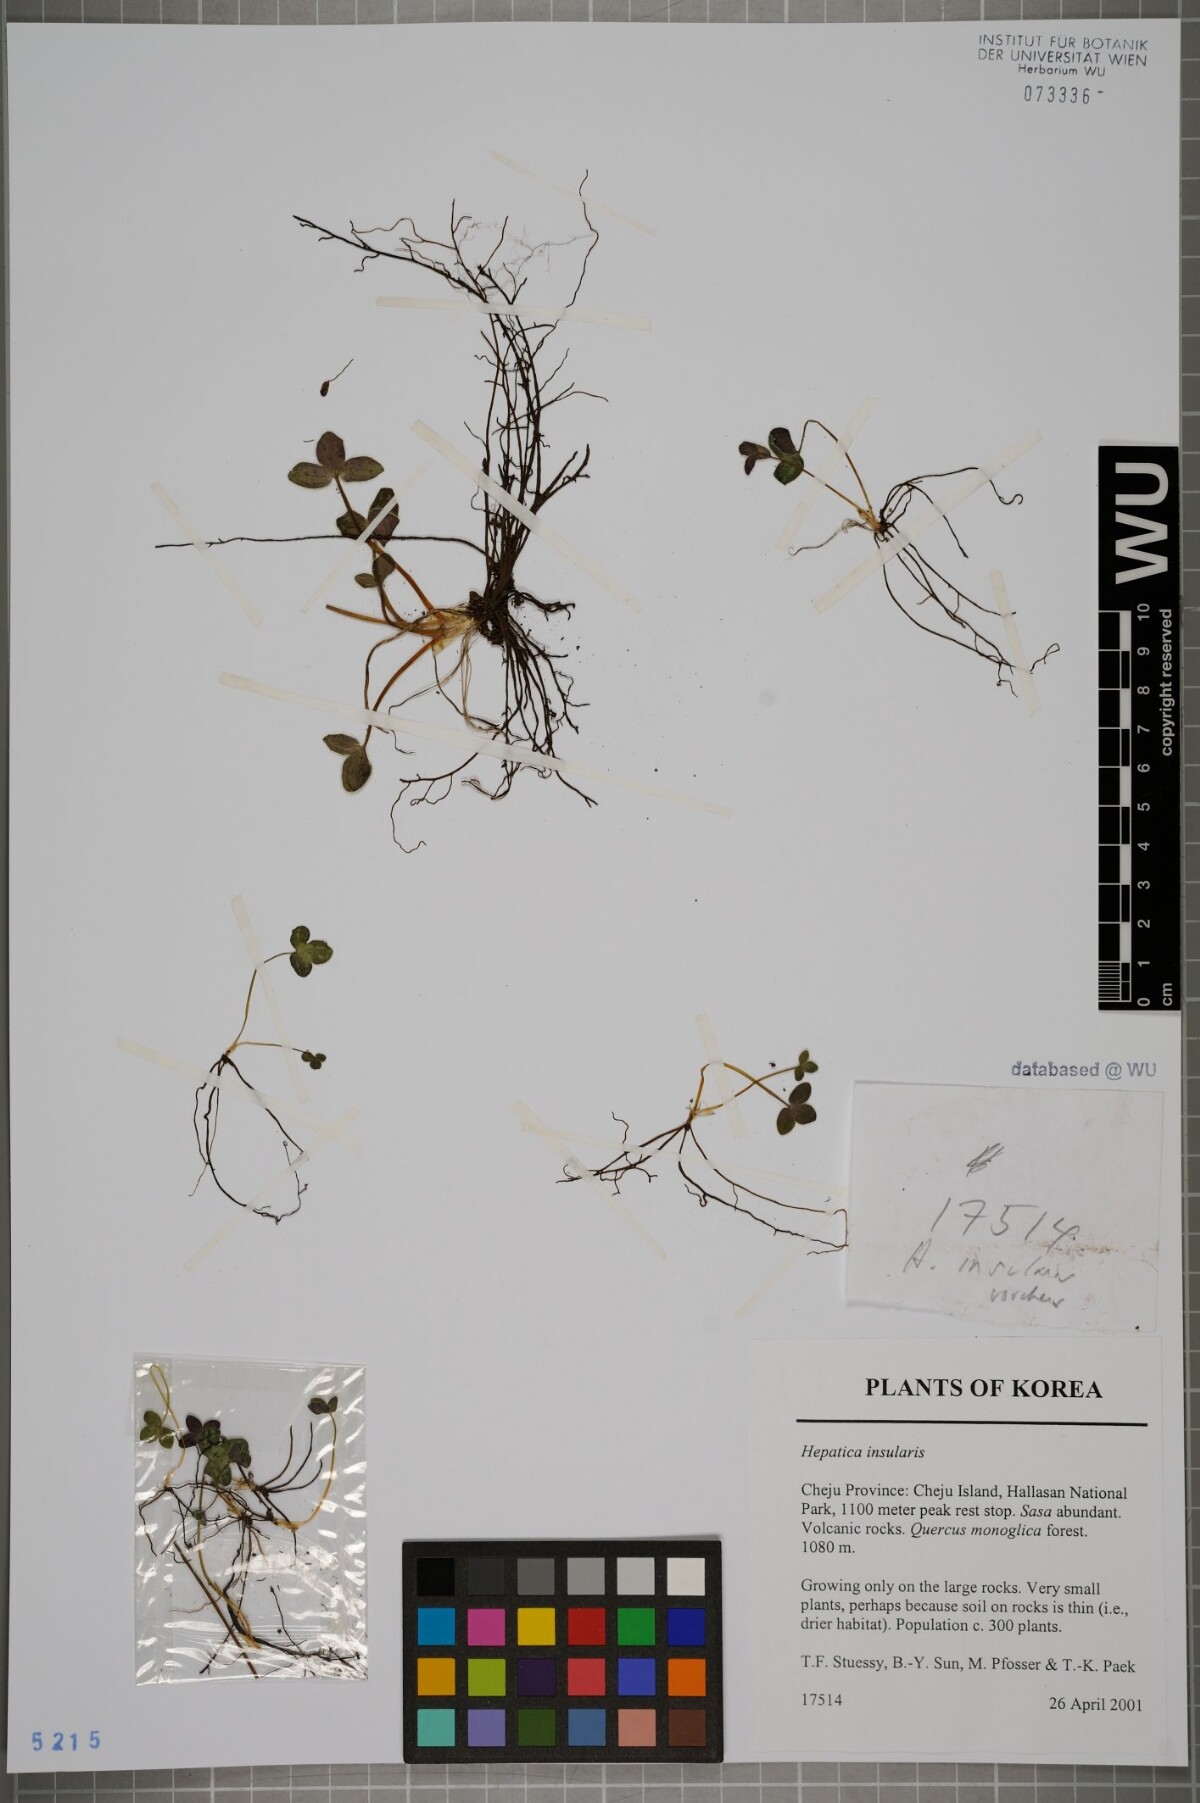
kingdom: Plantae
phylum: Tracheophyta
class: Magnoliopsida
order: Ranunculales
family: Ranunculaceae
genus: Hepatica
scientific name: Hepatica insularis
